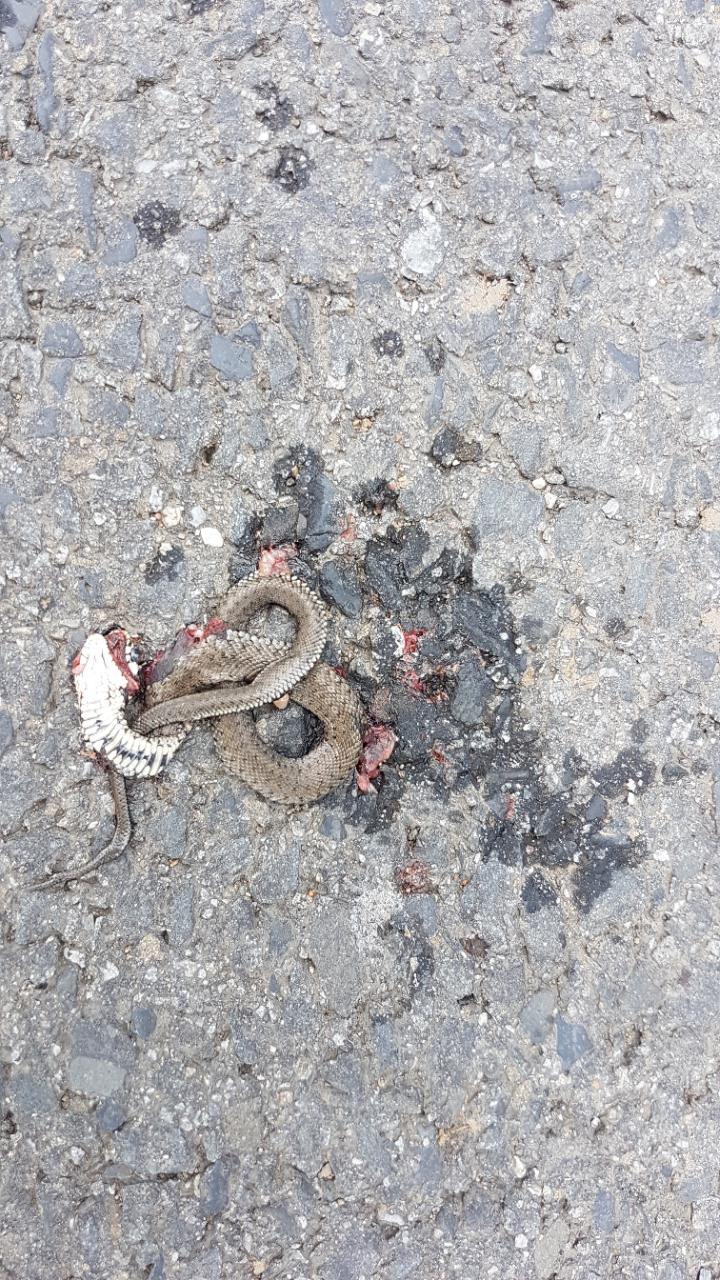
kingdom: Animalia
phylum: Chordata
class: Squamata
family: Colubridae
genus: Natrix
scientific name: Natrix natrix
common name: Grass snake
